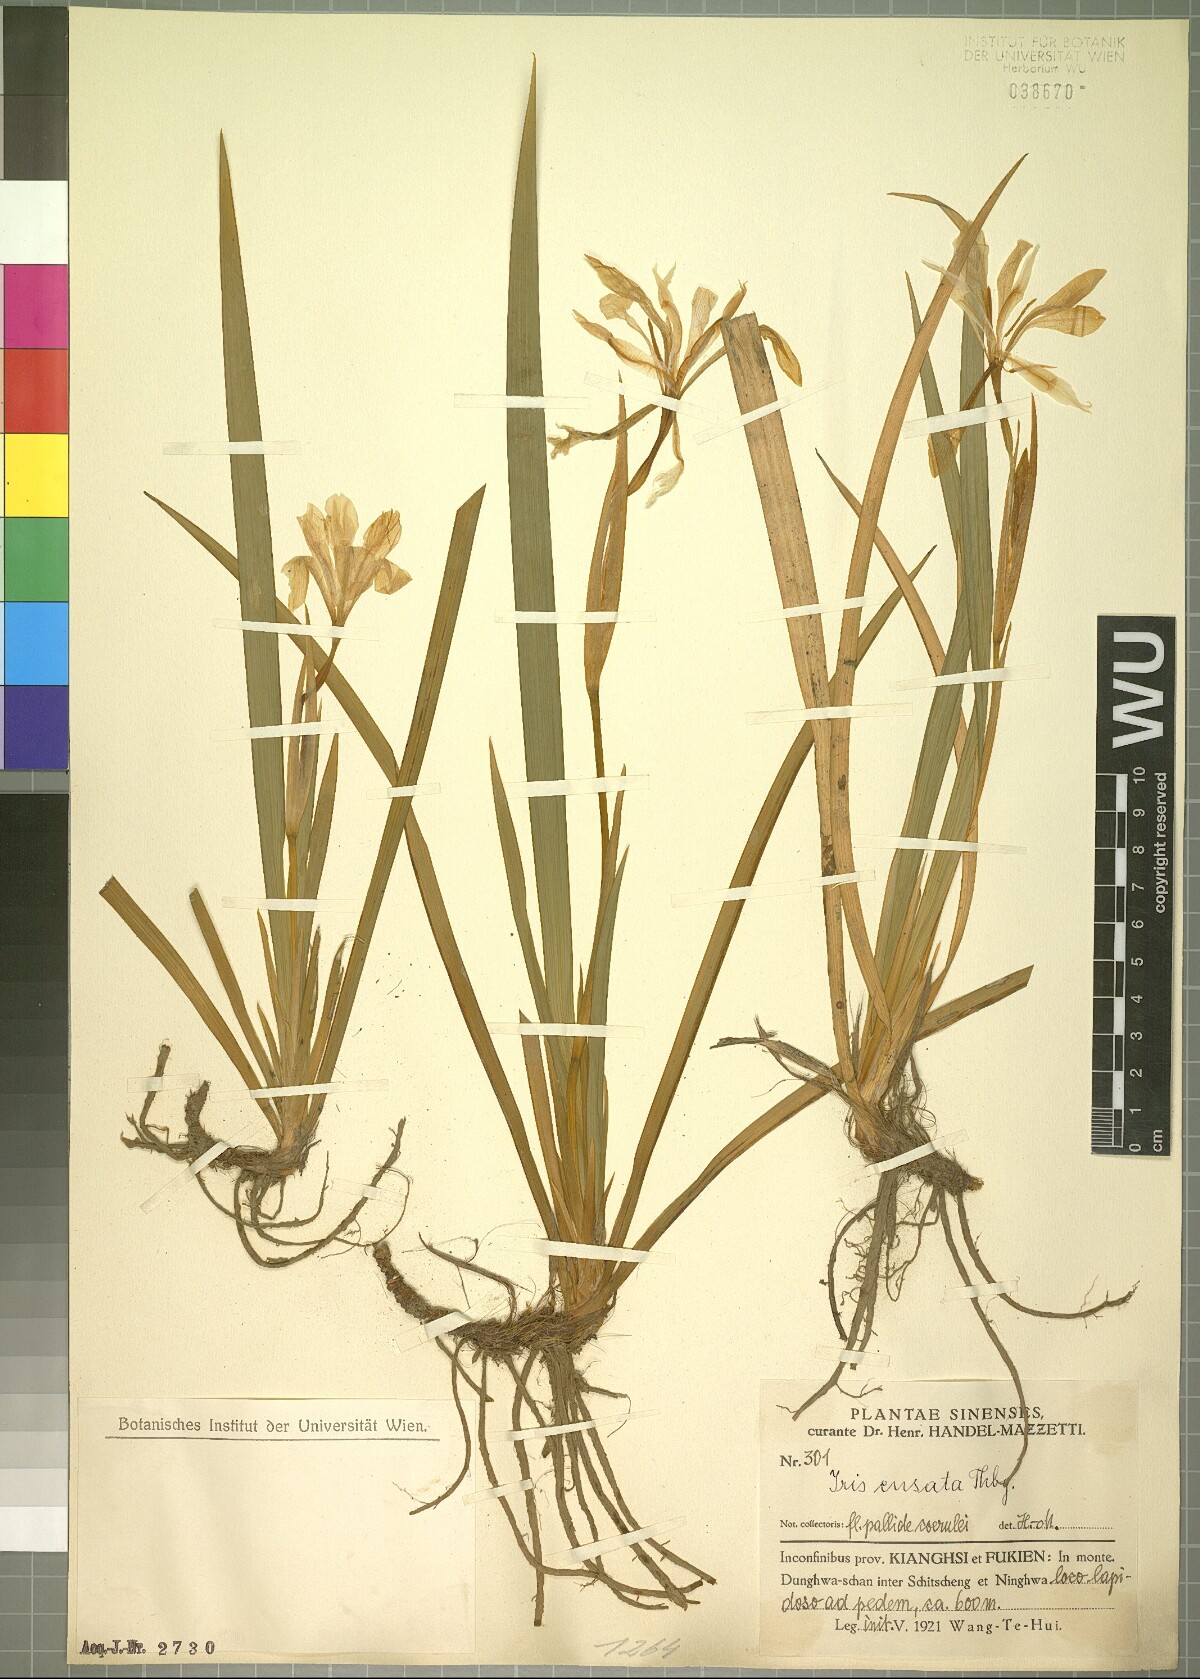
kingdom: Plantae
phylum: Tracheophyta
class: Liliopsida
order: Asparagales
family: Iridaceae
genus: Iris
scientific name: Iris ensata
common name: Beaked iris
